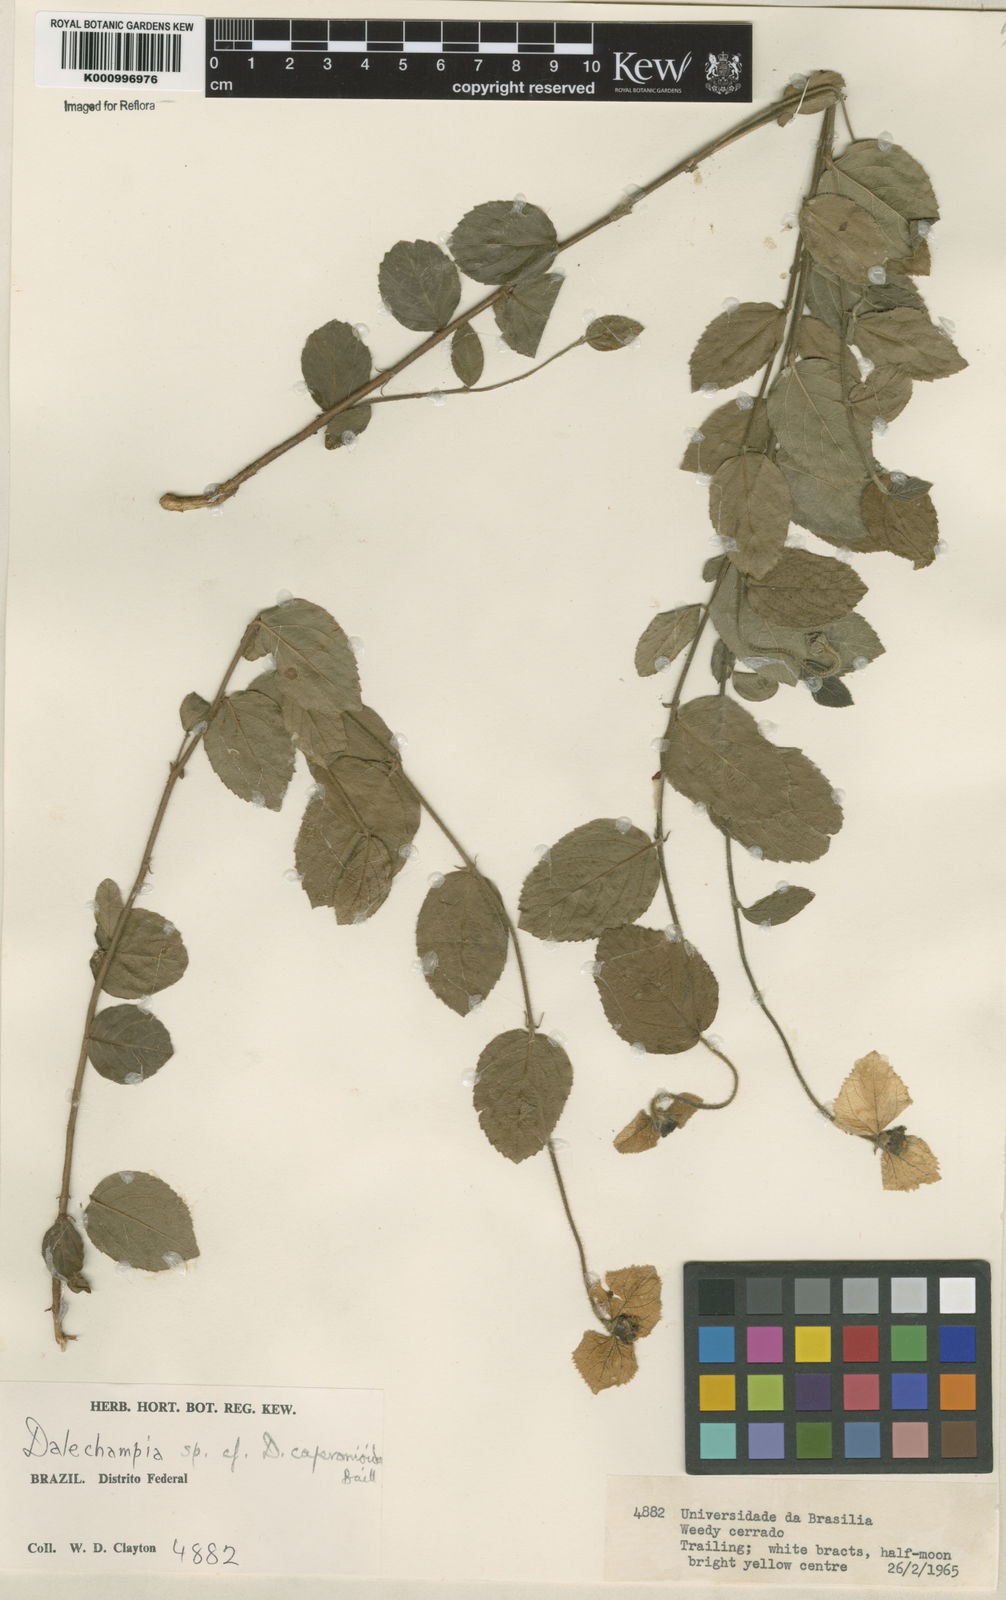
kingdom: Plantae
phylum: Tracheophyta
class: Magnoliopsida
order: Malpighiales
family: Euphorbiaceae
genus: Dalechampia
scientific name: Dalechampia caperonioides
